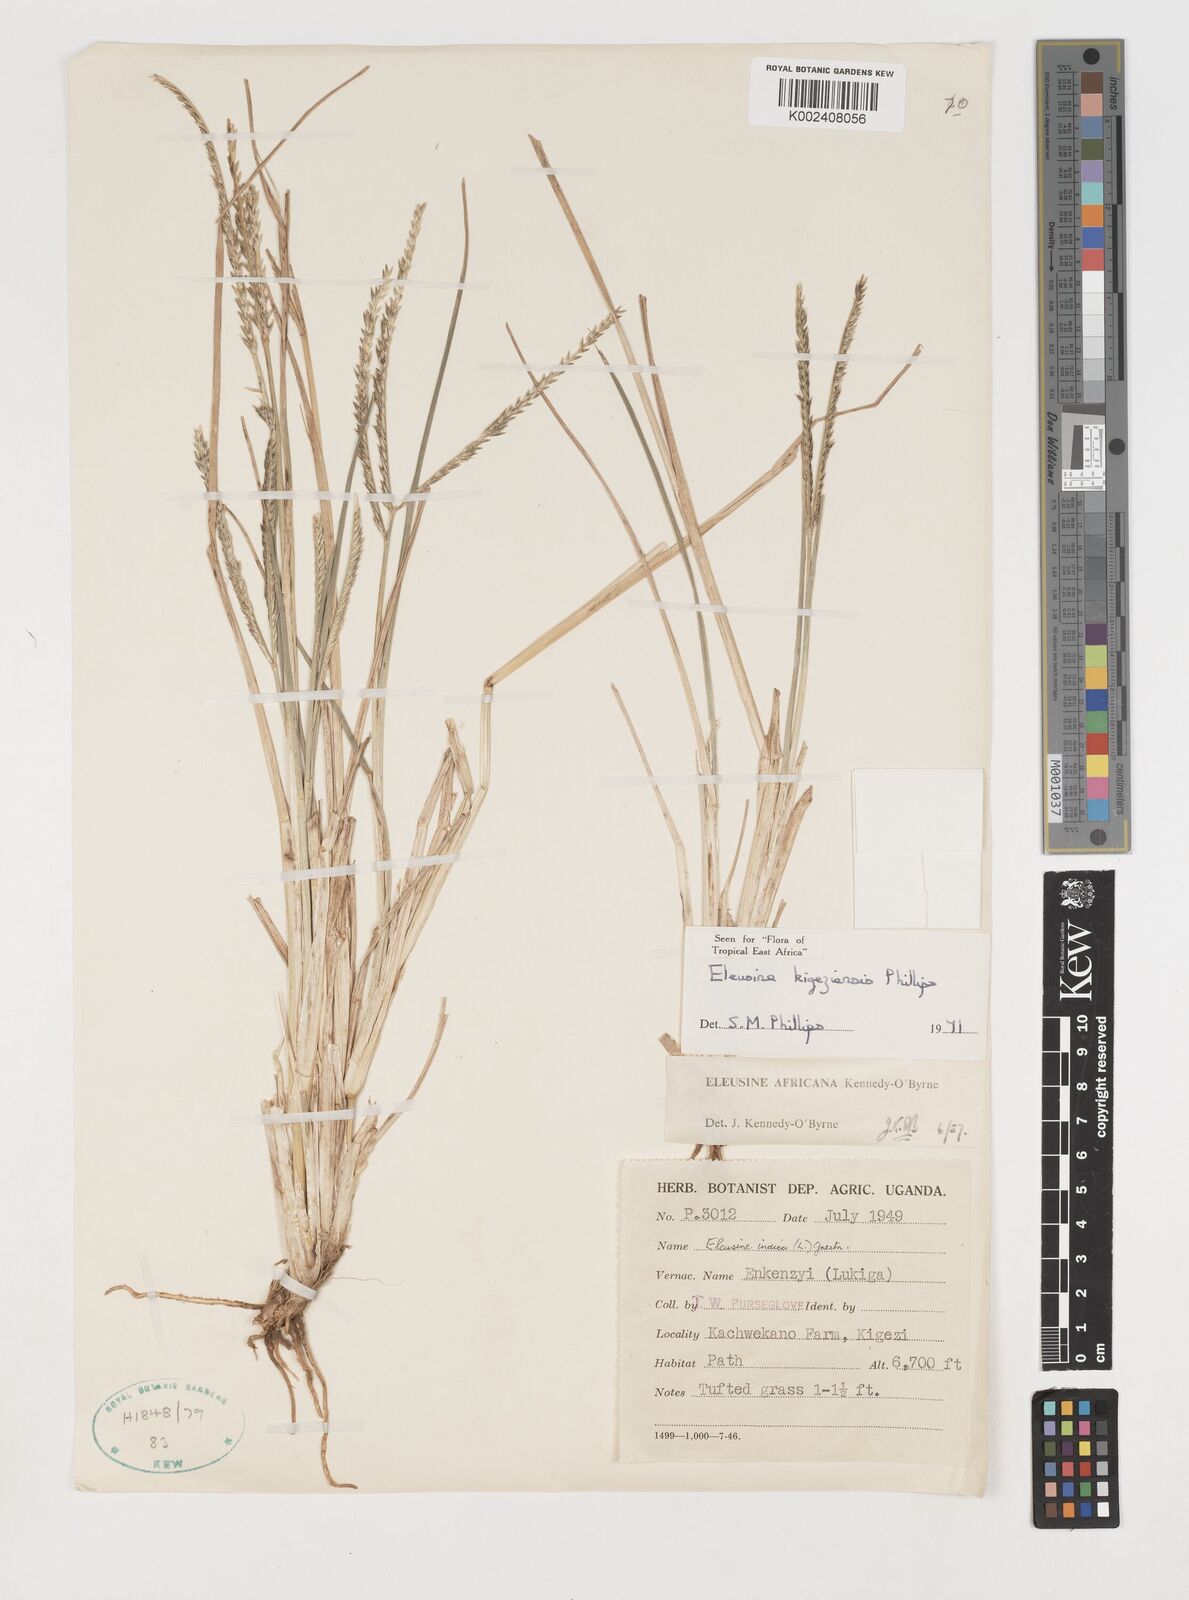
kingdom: Plantae
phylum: Tracheophyta
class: Liliopsida
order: Poales
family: Poaceae
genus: Eleusine
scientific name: Eleusine kigeziensis
